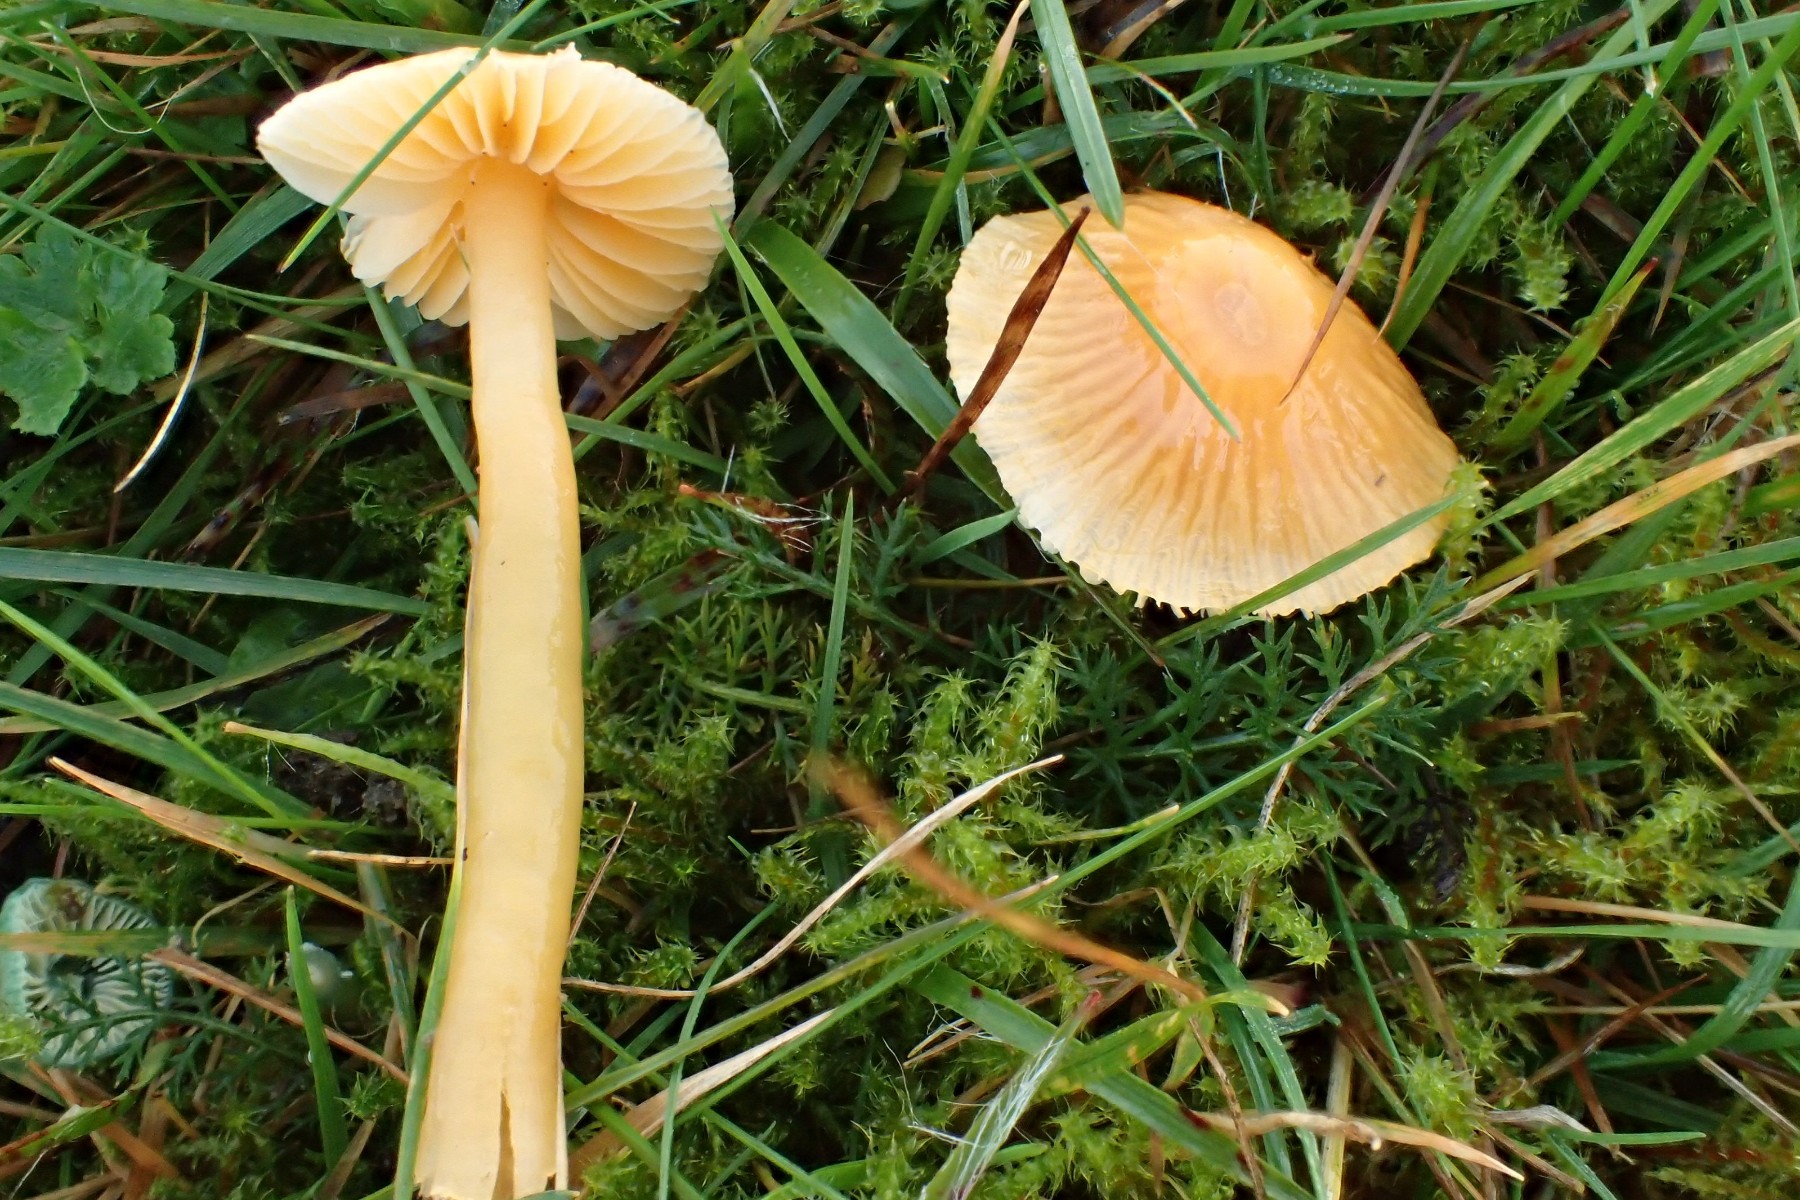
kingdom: Fungi
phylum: Basidiomycota
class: Agaricomycetes
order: Agaricales
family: Hygrophoraceae
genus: Gliophorus
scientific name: Gliophorus psittacinus
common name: papegøje-vokshat
